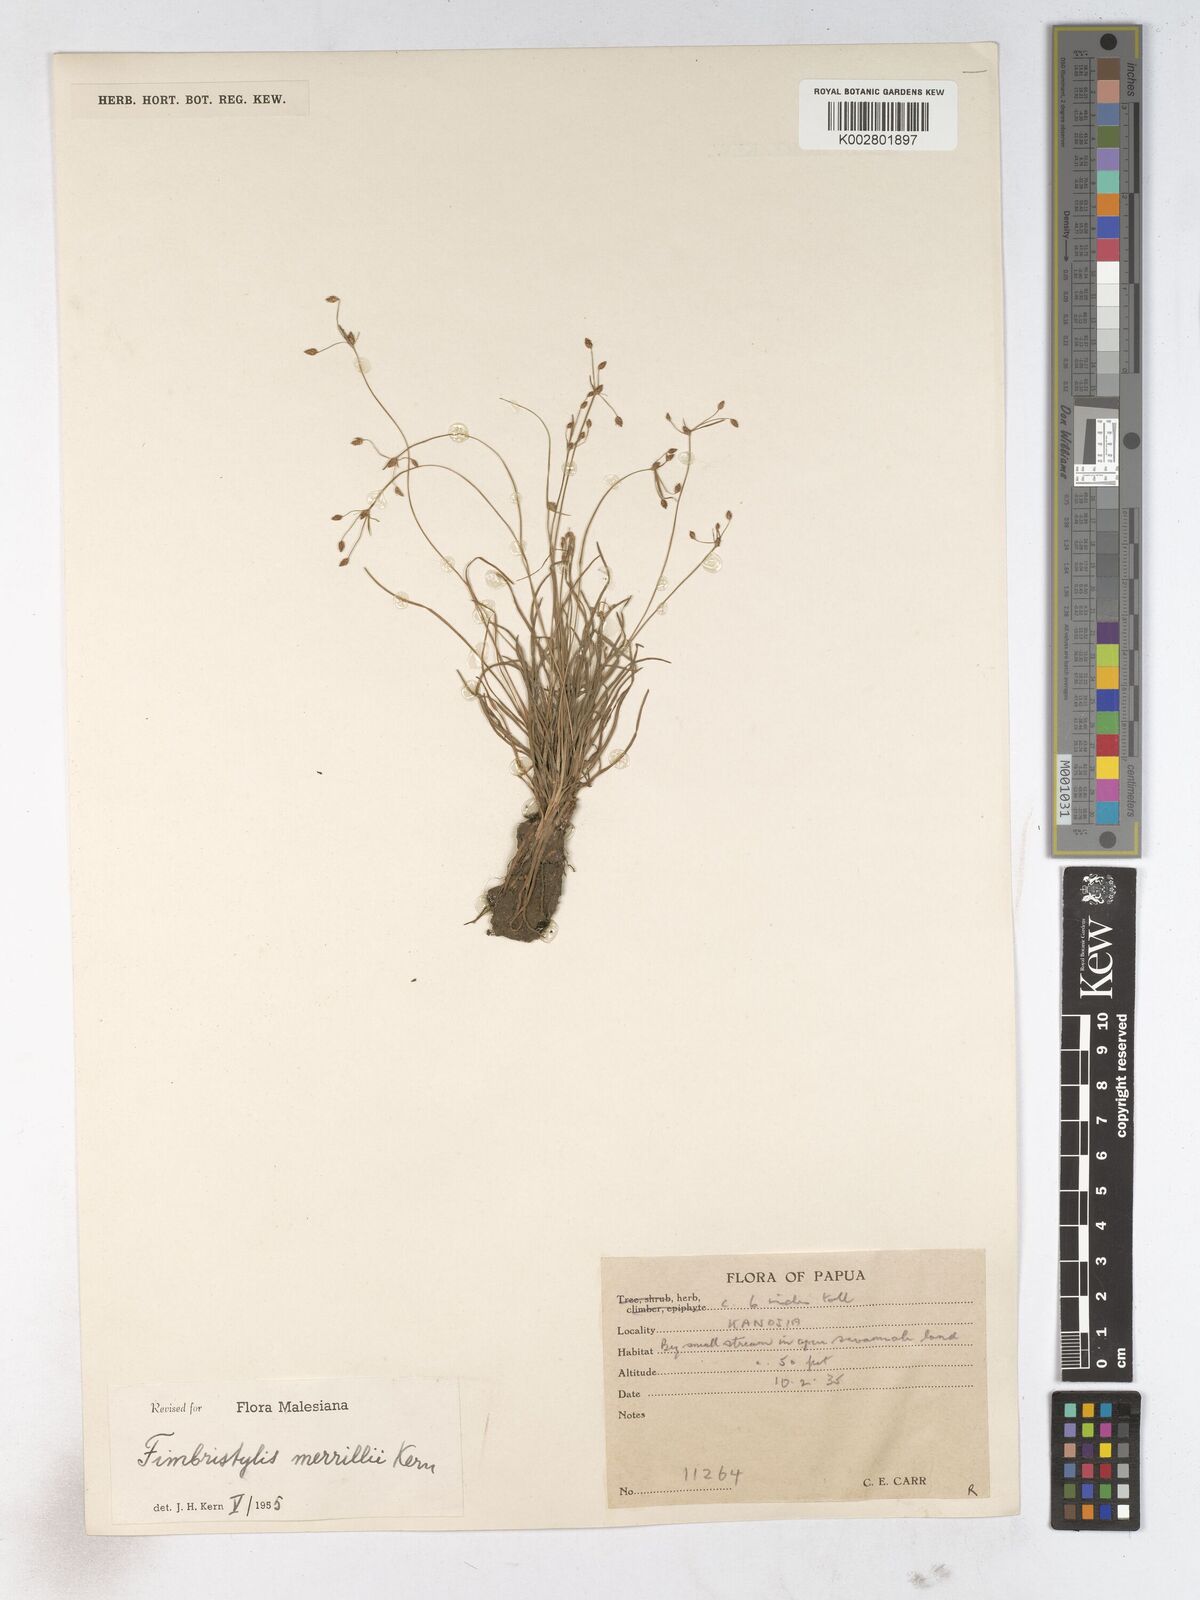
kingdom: Plantae
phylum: Tracheophyta
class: Liliopsida
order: Poales
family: Cyperaceae
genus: Fimbristylis
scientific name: Fimbristylis merrillii
